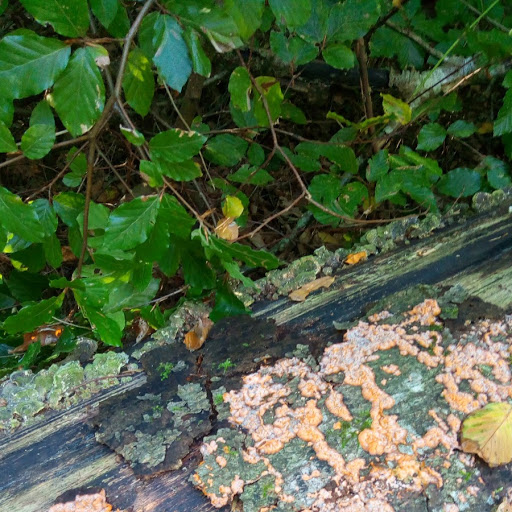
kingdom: Fungi
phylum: Basidiomycota
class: Agaricomycetes
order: Polyporales
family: Meruliaceae
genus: Phlebia
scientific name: Phlebia radiata
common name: stråle-åresvamp
